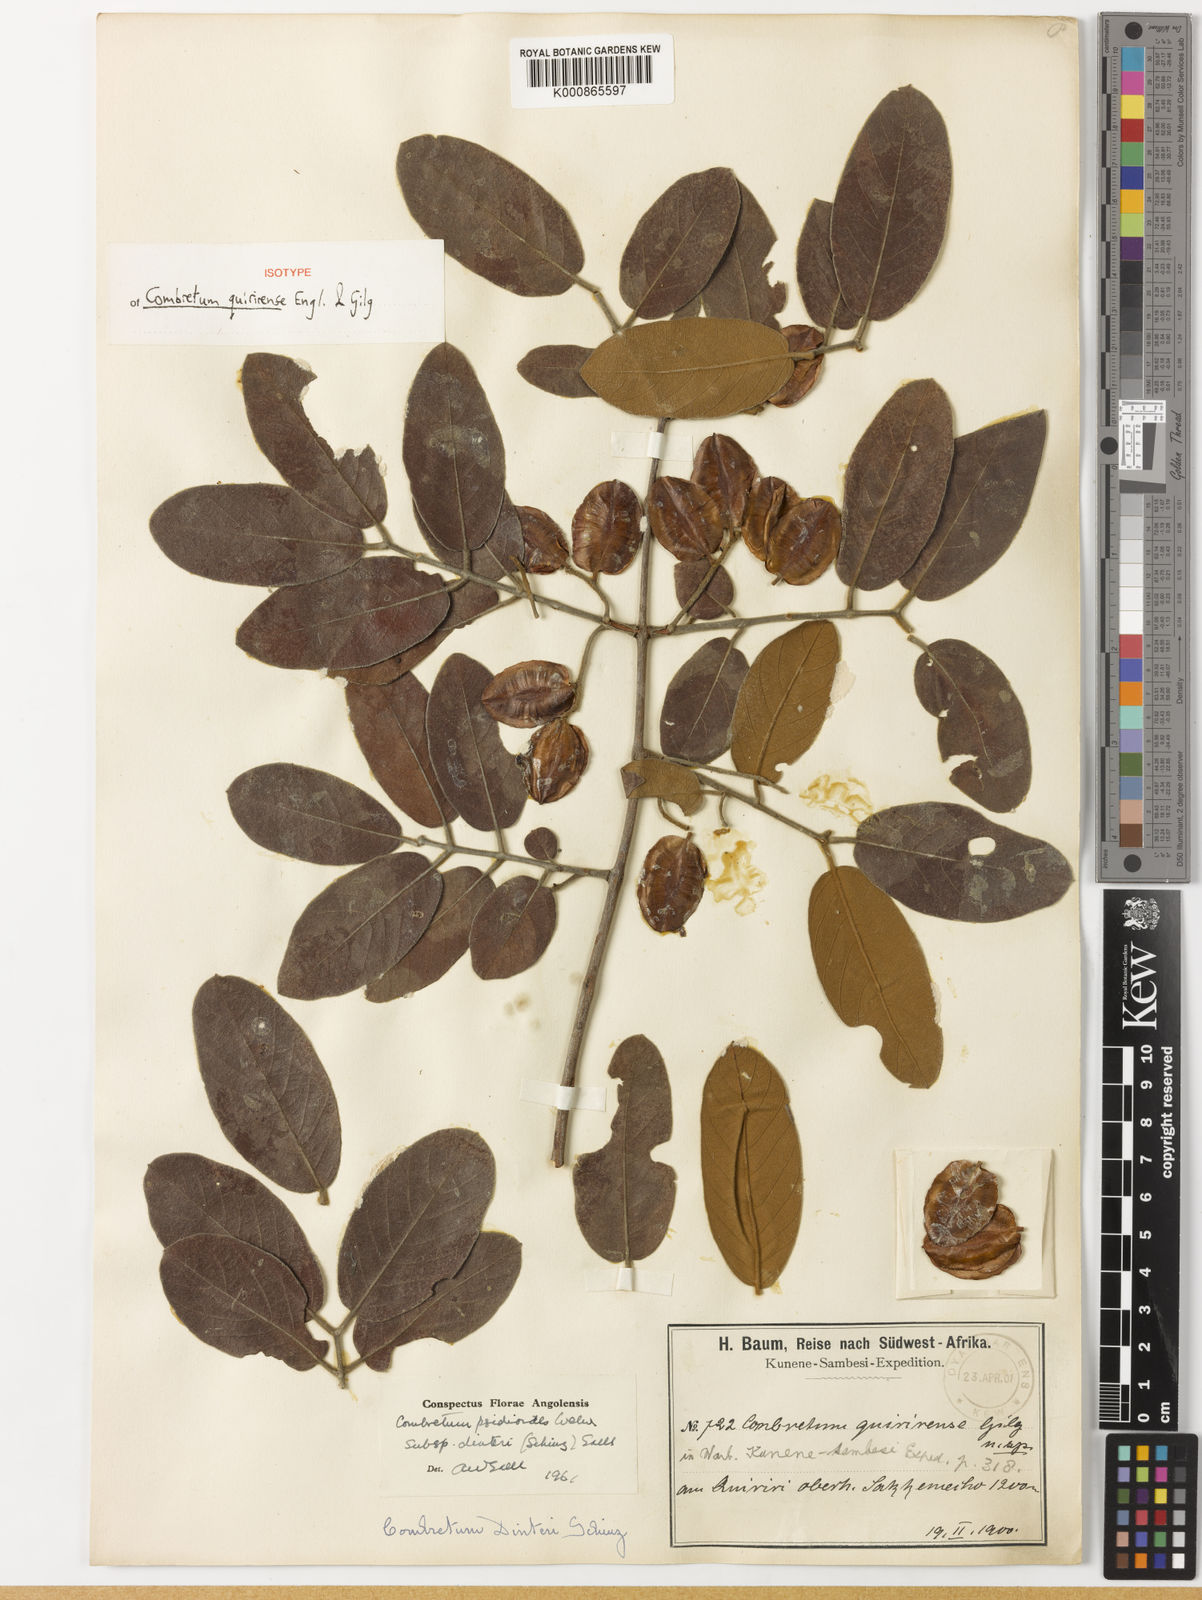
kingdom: Plantae
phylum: Tracheophyta
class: Magnoliopsida
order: Myrtales
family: Combretaceae
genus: Combretum
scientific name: Combretum
